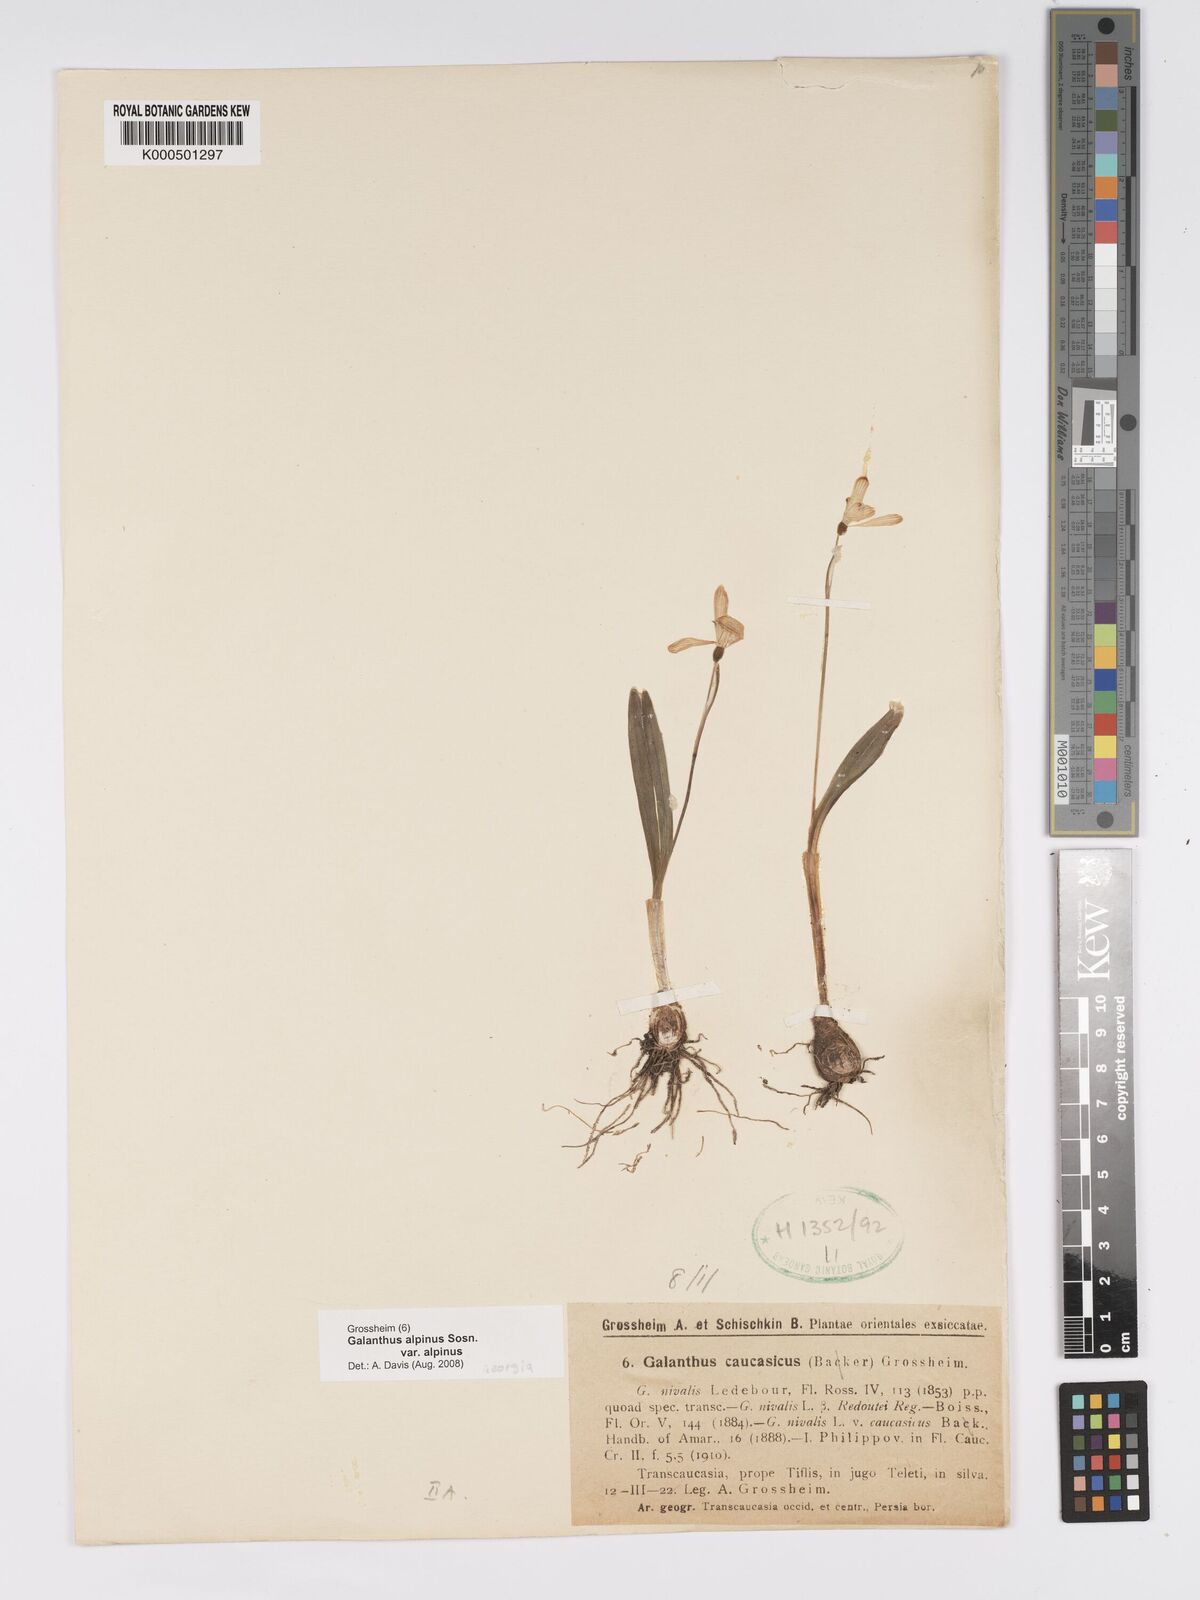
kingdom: Plantae
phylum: Tracheophyta
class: Liliopsida
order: Asparagales
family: Amaryllidaceae
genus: Galanthus
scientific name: Galanthus alpinus
